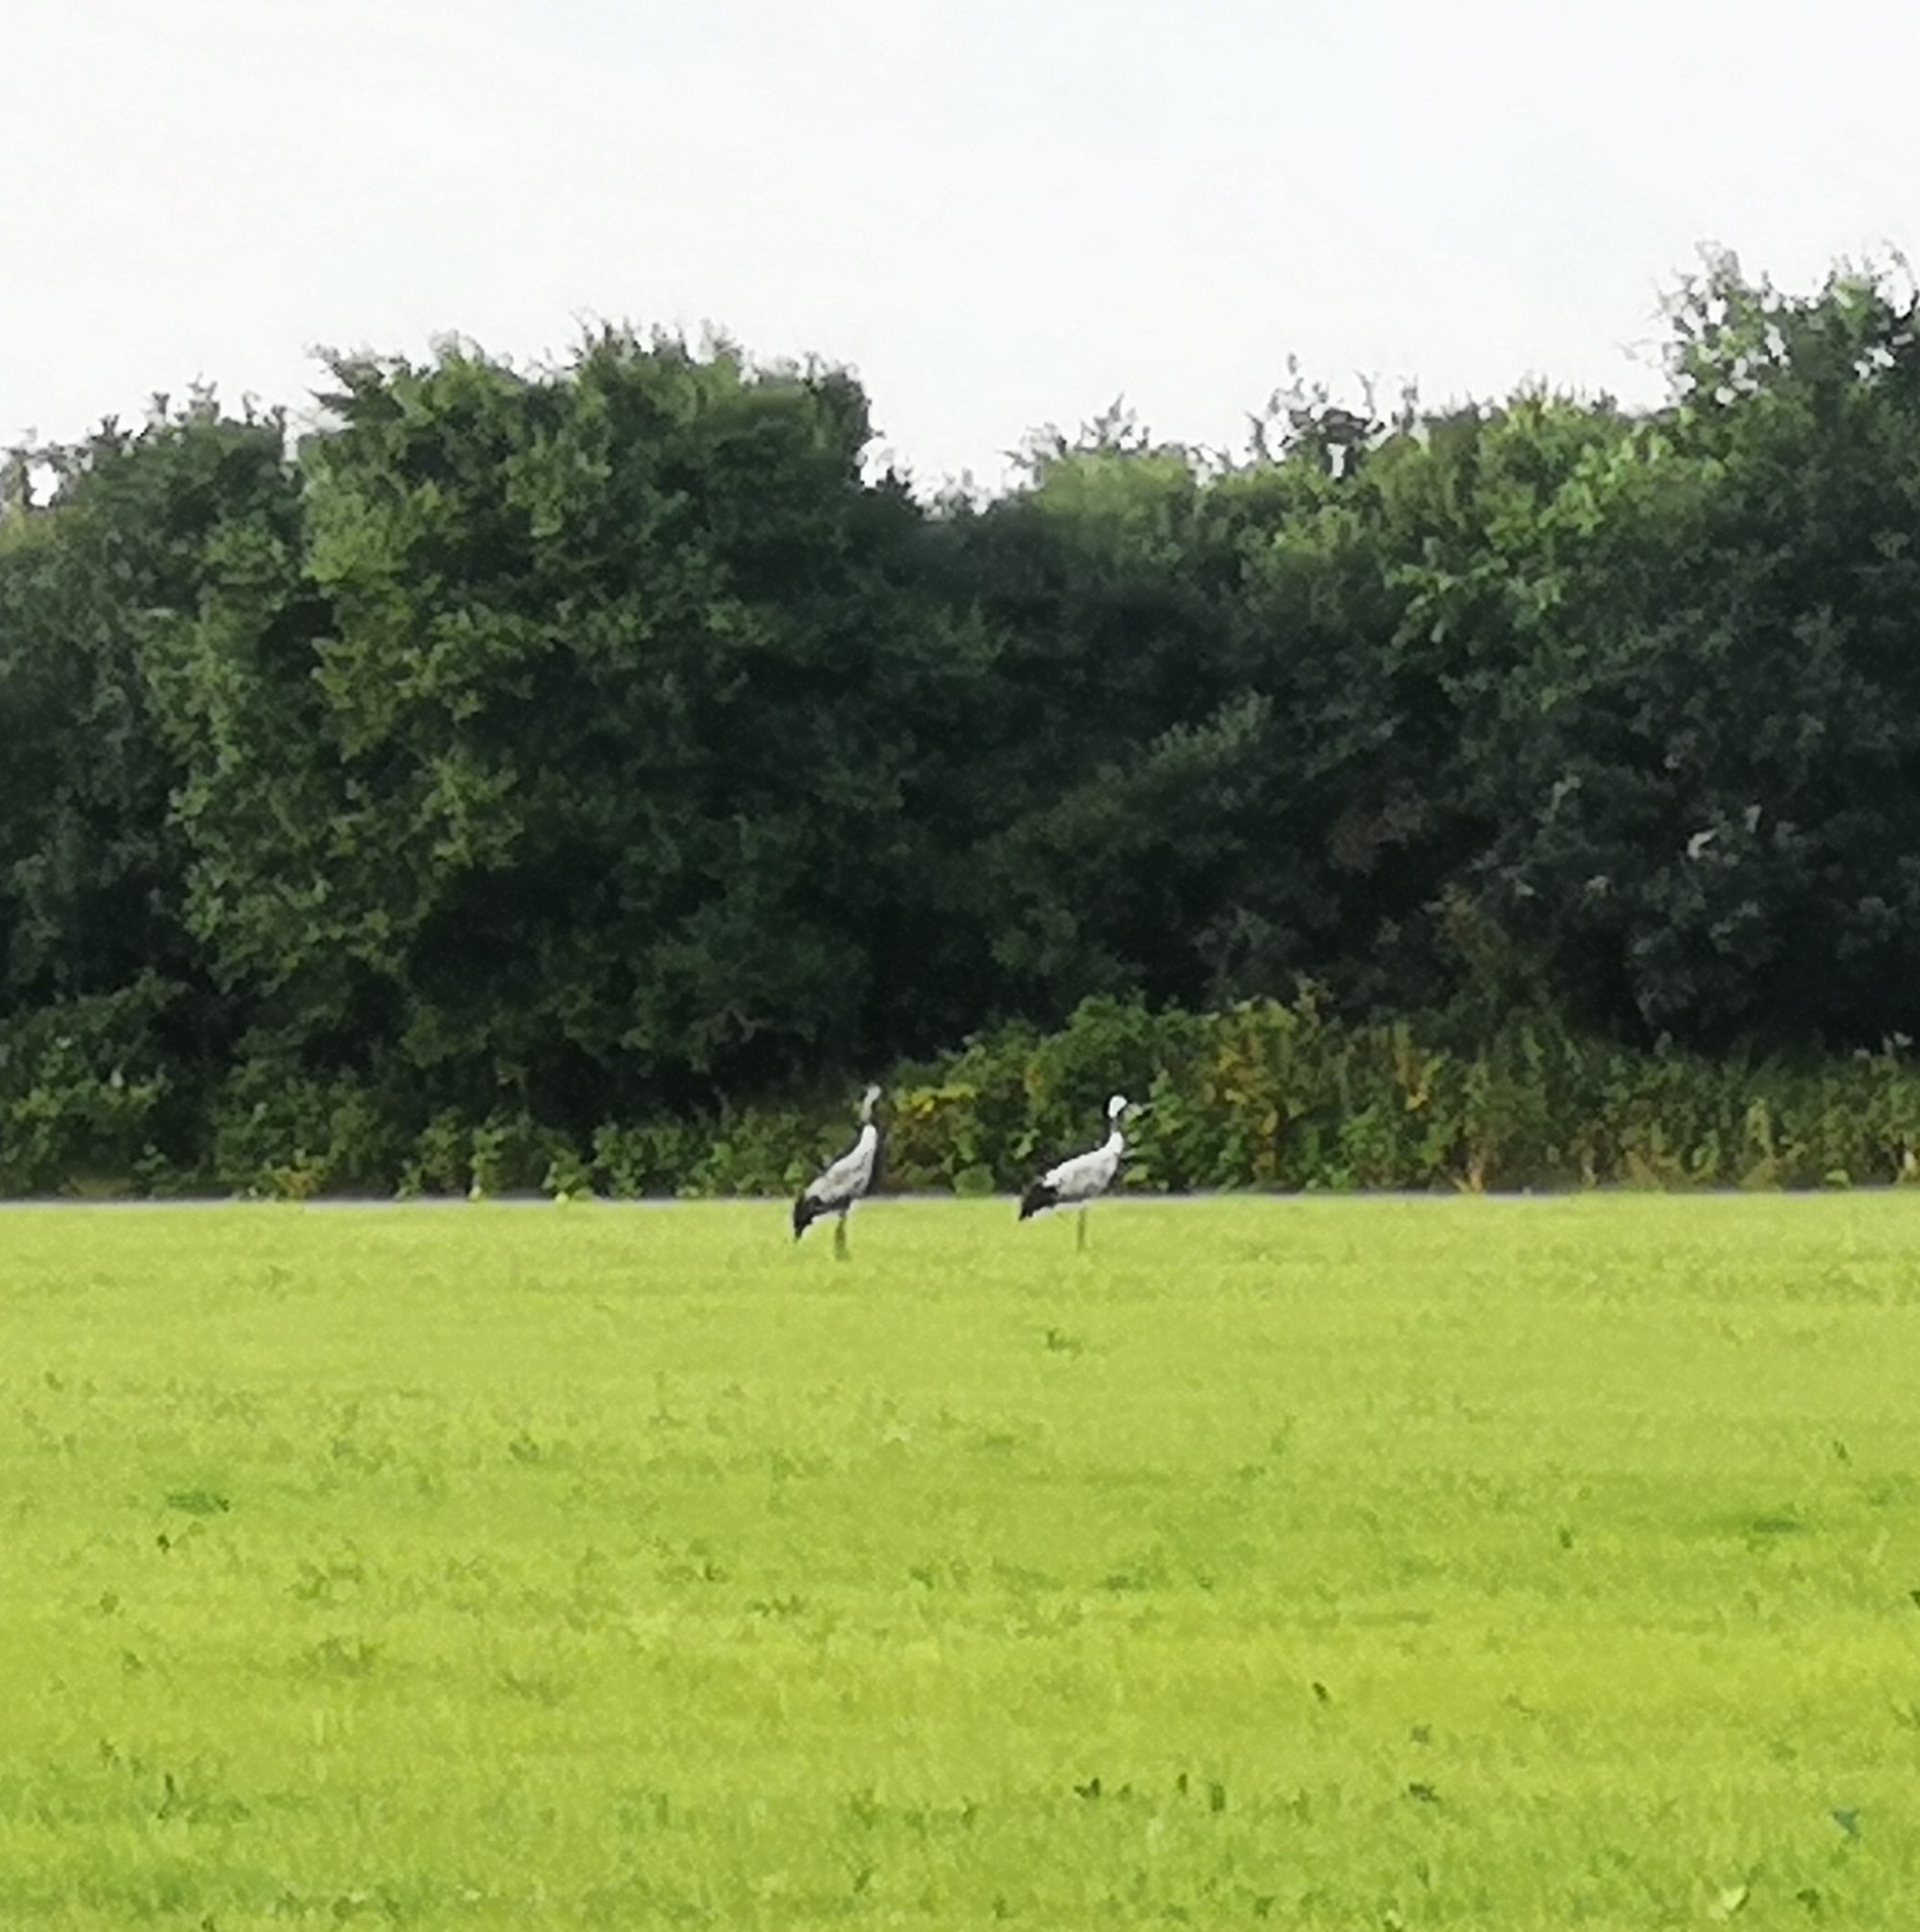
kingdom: Animalia
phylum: Chordata
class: Aves
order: Gruiformes
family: Gruidae
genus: Grus
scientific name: Grus grus
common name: Trane
